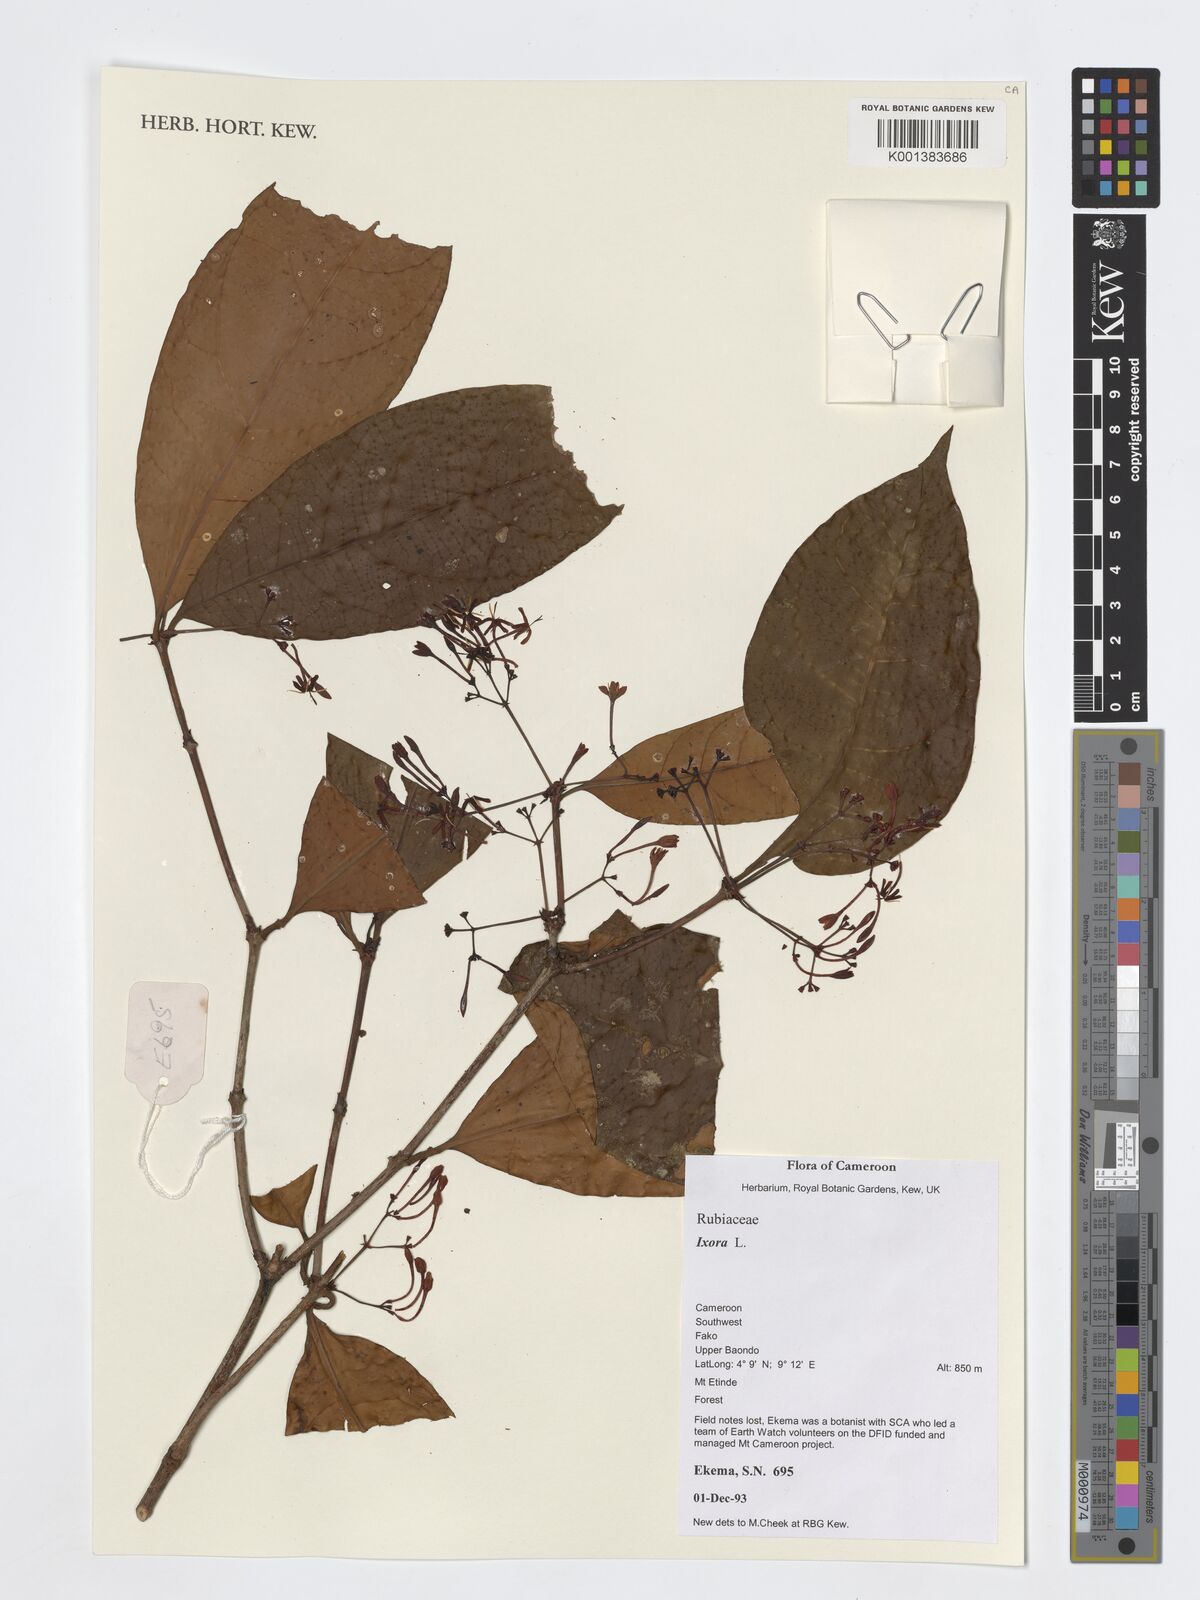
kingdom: Plantae
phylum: Tracheophyta
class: Magnoliopsida
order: Gentianales
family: Rubiaceae
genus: Ixora
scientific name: Ixora
